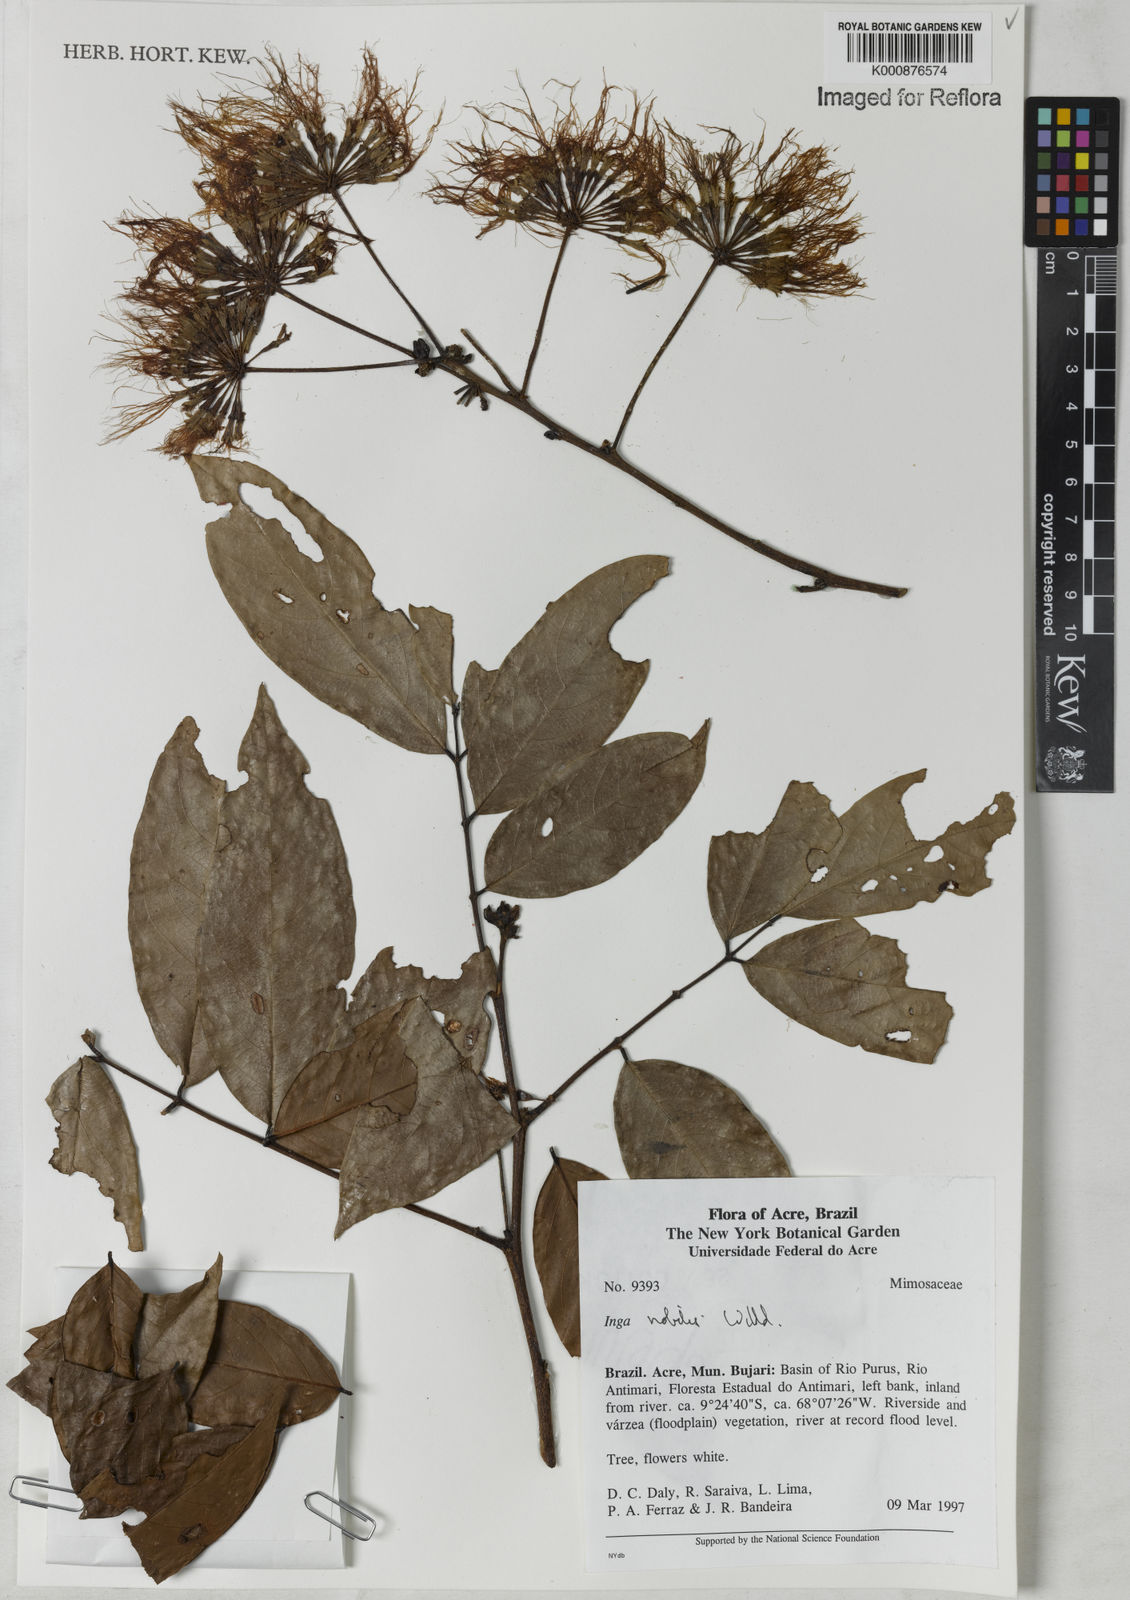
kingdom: Plantae
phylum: Tracheophyta
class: Magnoliopsida
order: Fabales
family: Fabaceae
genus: Inga
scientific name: Inga nobilis
